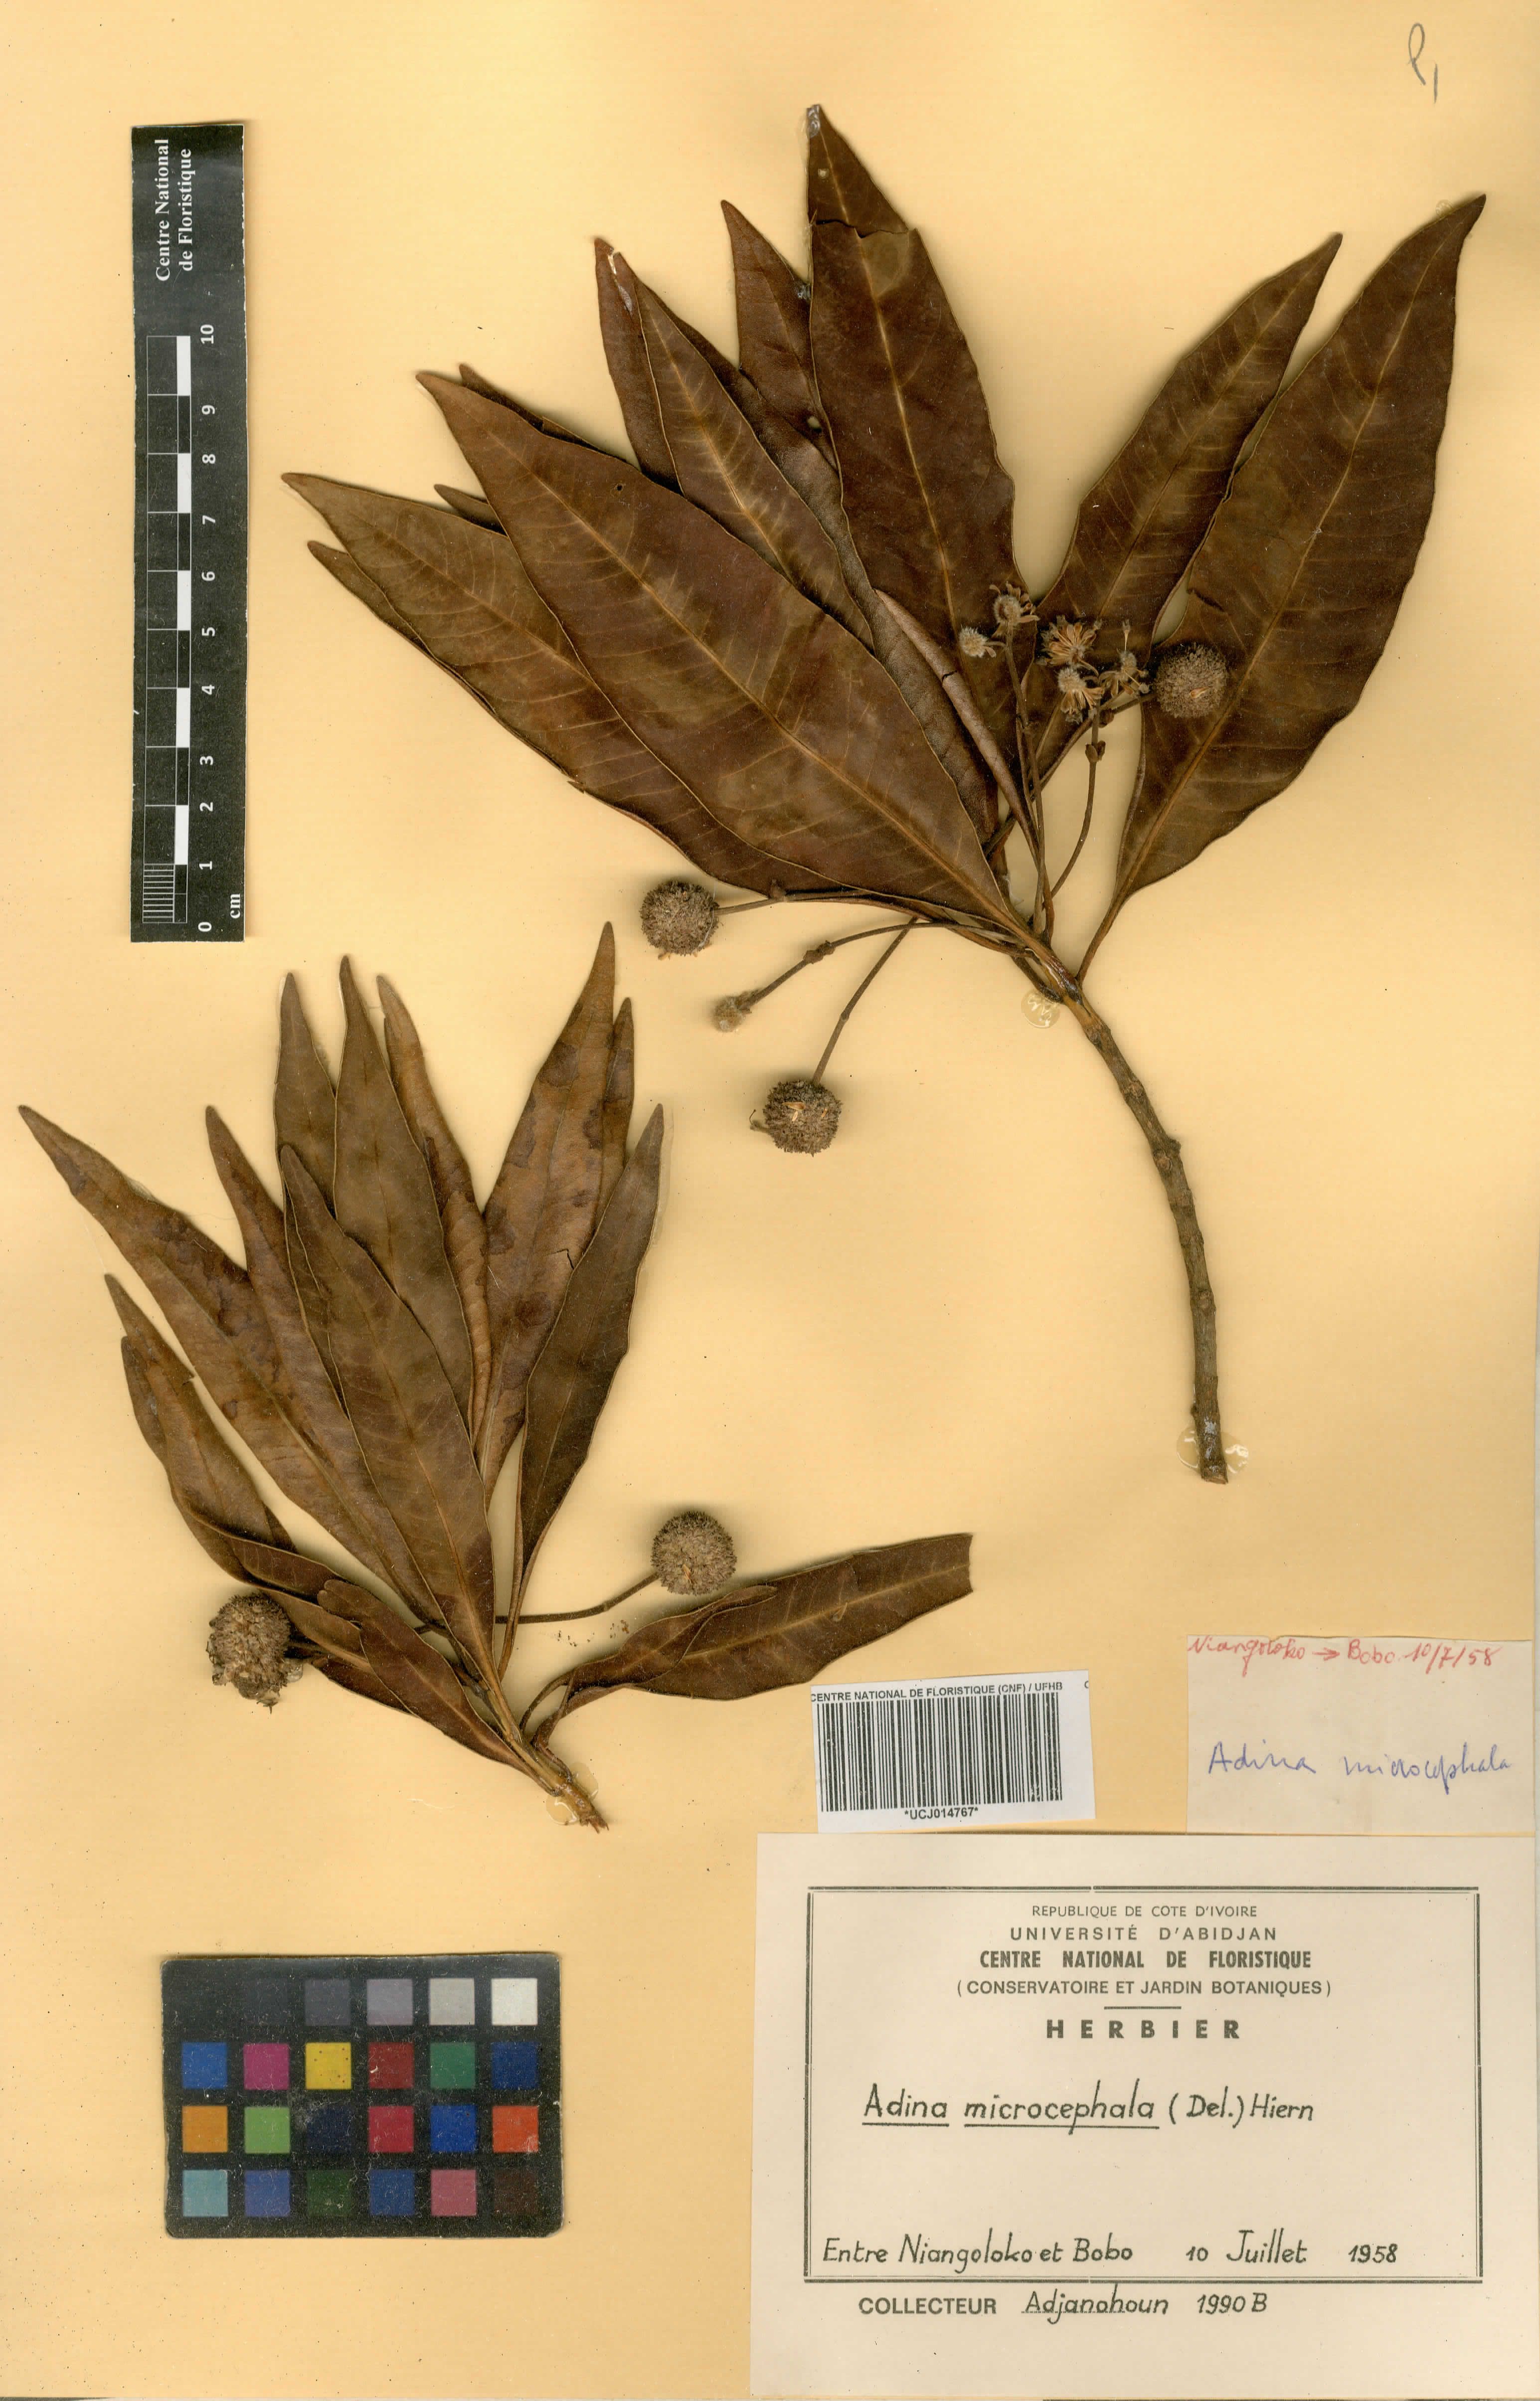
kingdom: Plantae
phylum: Tracheophyta
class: Magnoliopsida
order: Gentianales
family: Rubiaceae
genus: Breonadia
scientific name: Breonadia salicina
